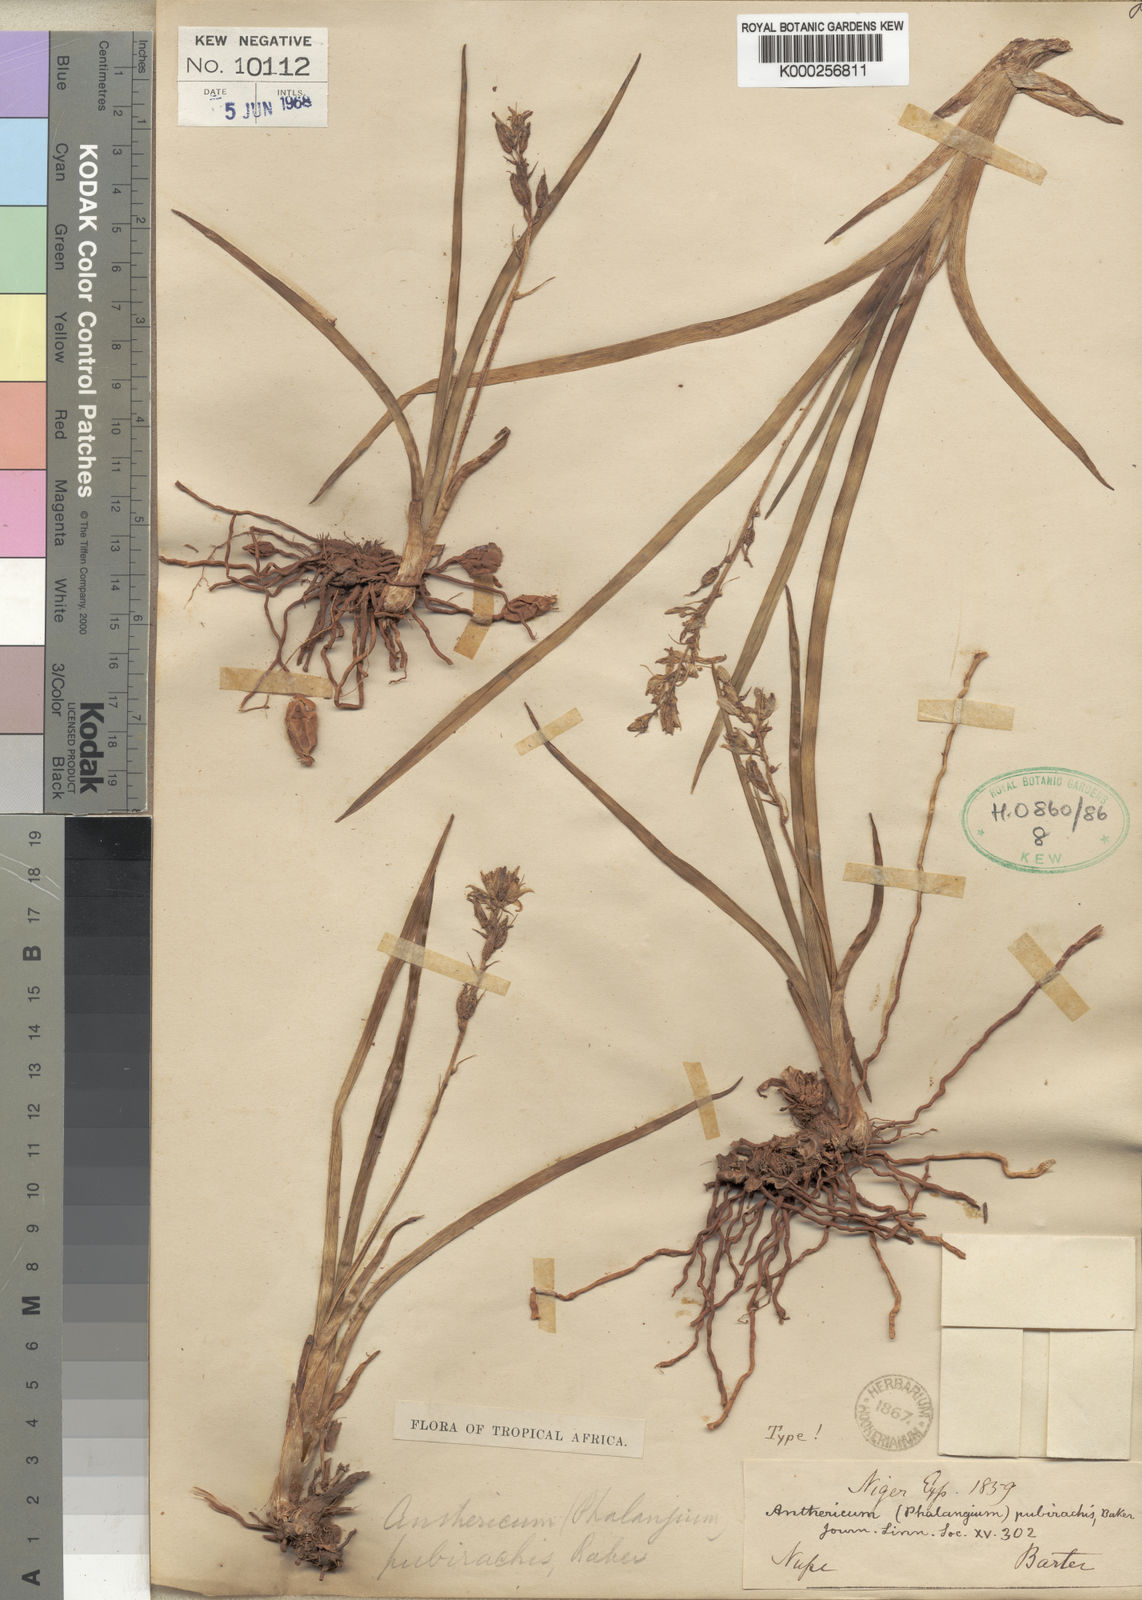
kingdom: Plantae
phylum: Tracheophyta
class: Liliopsida
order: Asparagales
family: Asparagaceae
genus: Chlorophytum
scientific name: Chlorophytum affine
